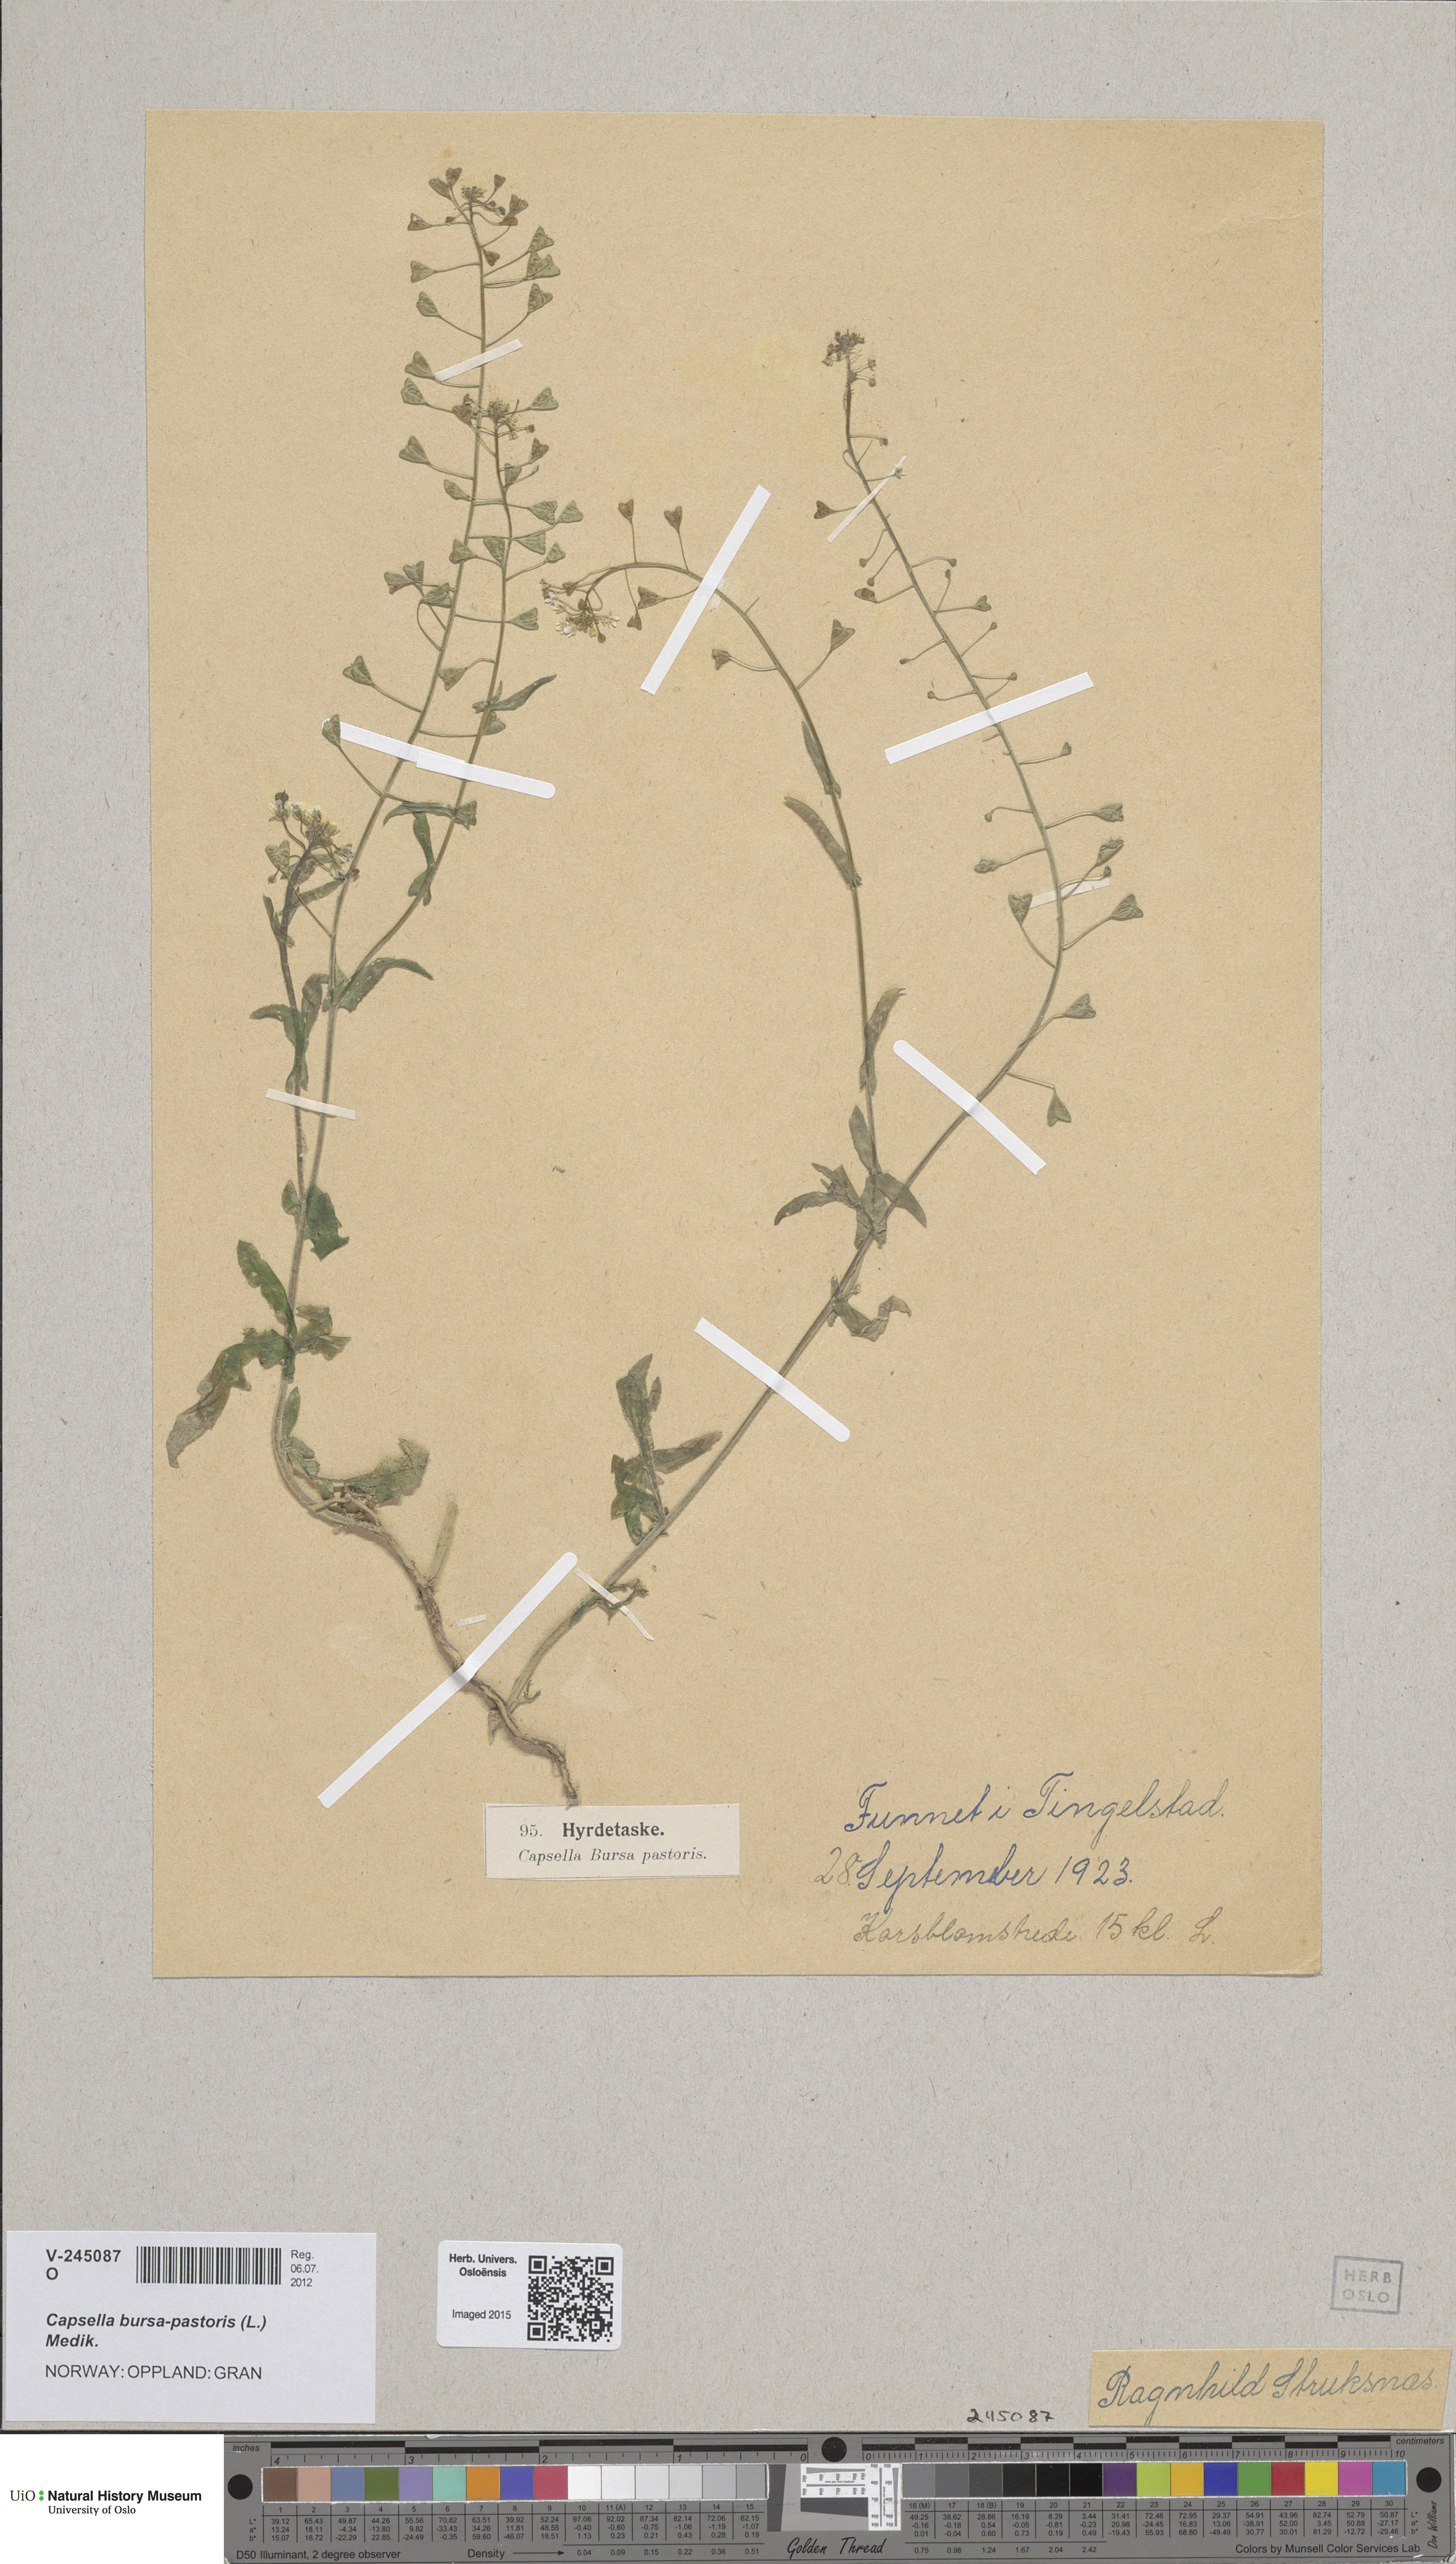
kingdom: Plantae
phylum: Tracheophyta
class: Magnoliopsida
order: Brassicales
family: Brassicaceae
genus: Capsella
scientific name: Capsella bursa-pastoris
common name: Shepherd's purse
